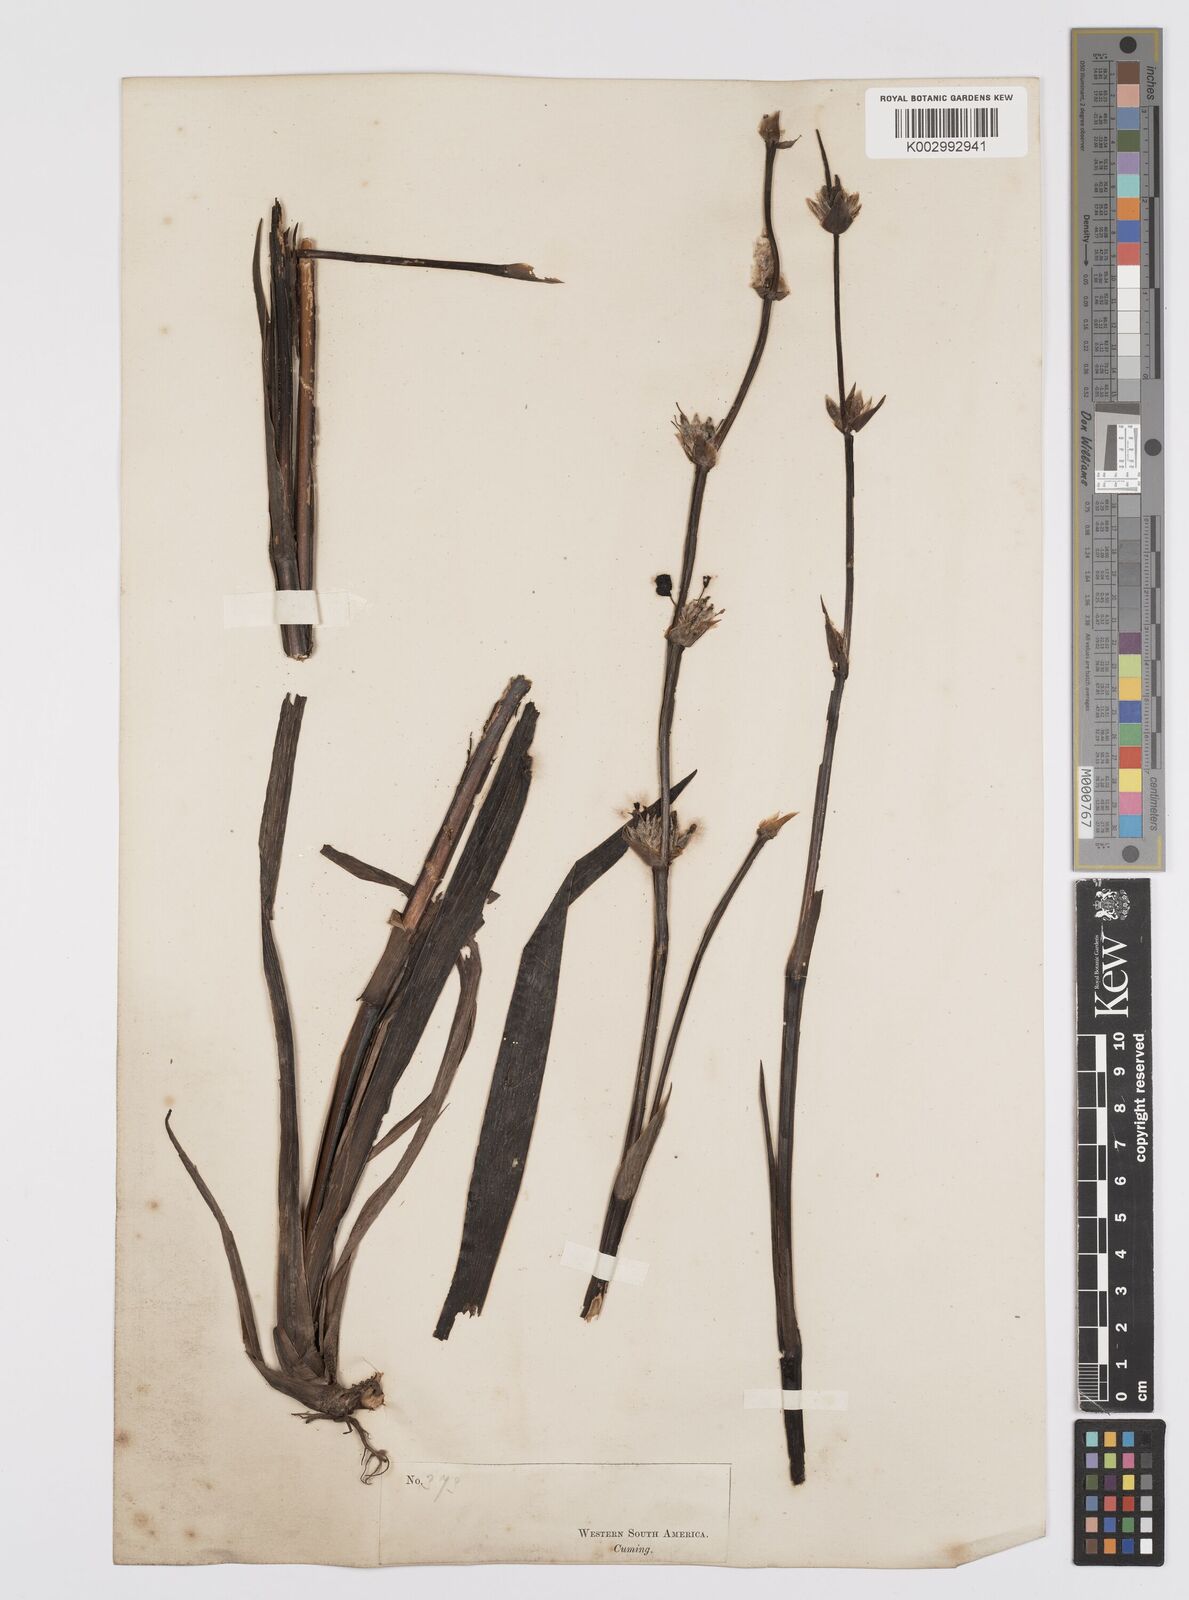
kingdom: Plantae
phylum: Tracheophyta
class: Liliopsida
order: Asparagales
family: Iridaceae
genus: Sisyrinchium
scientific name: Sisyrinchium striatum
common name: Pale yellow-eyed-grass
